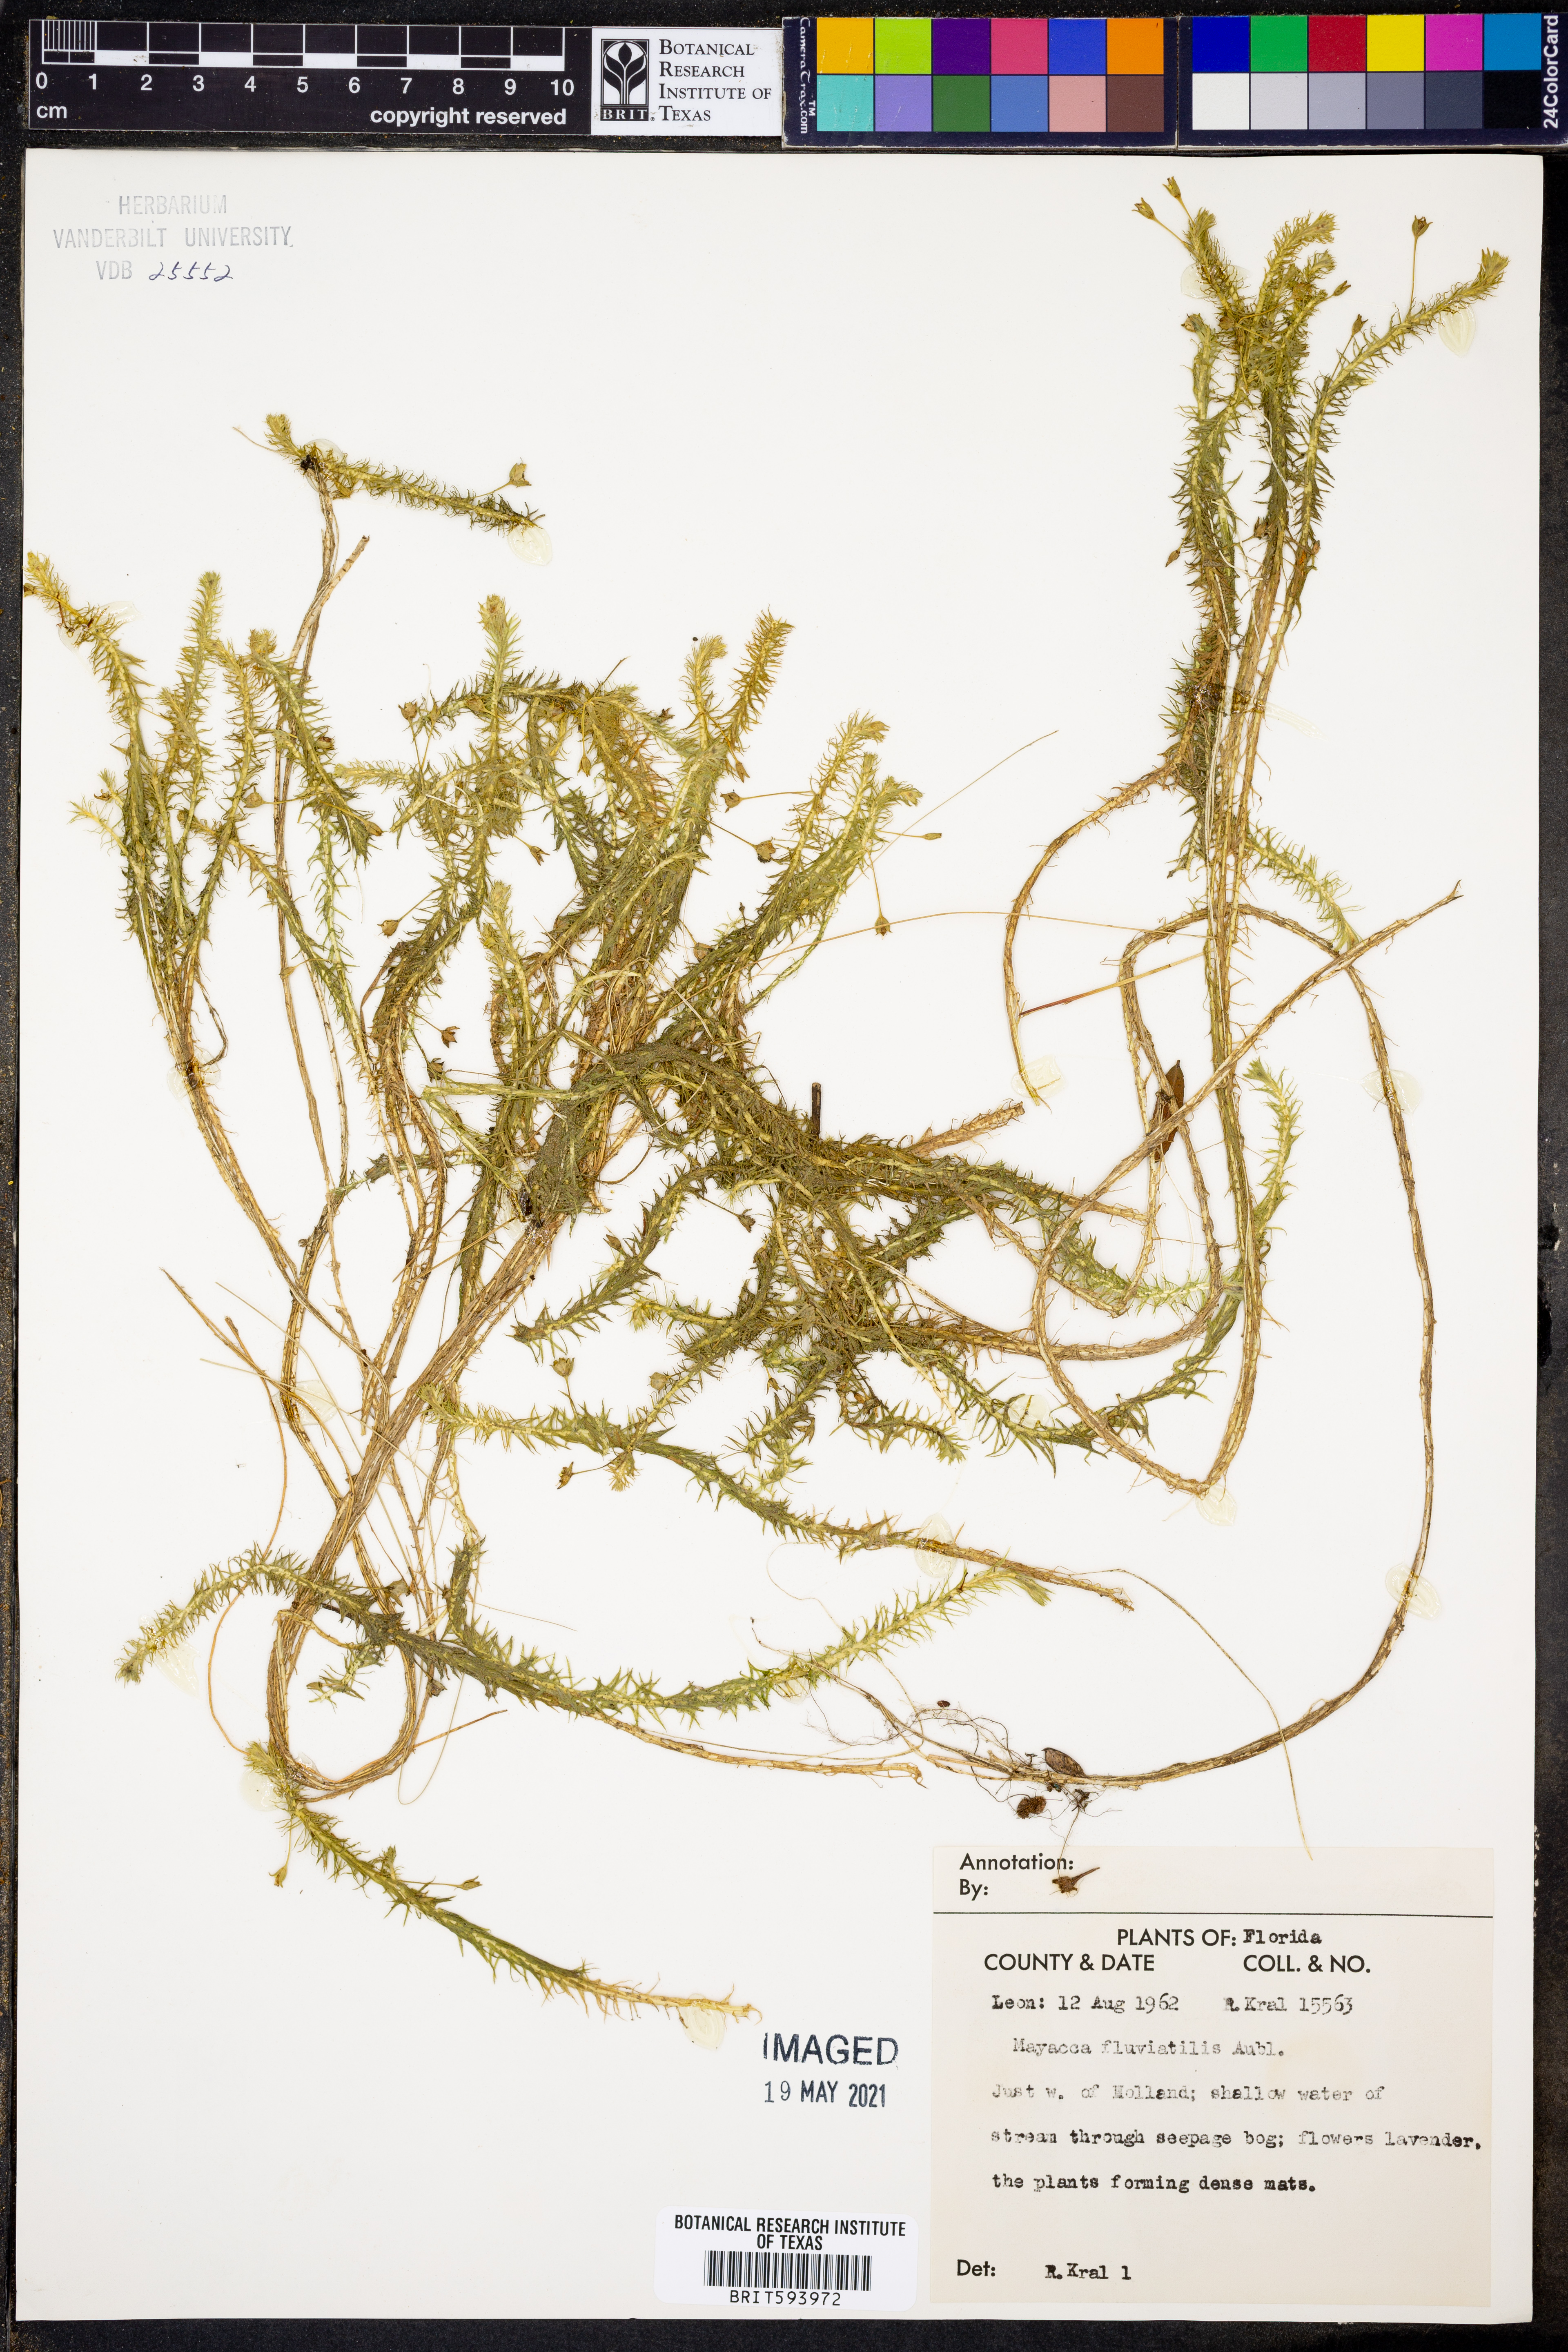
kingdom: Plantae
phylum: Tracheophyta
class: Liliopsida
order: Poales
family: Mayacaceae
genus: Mayaca
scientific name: Mayaca fluviatilis
